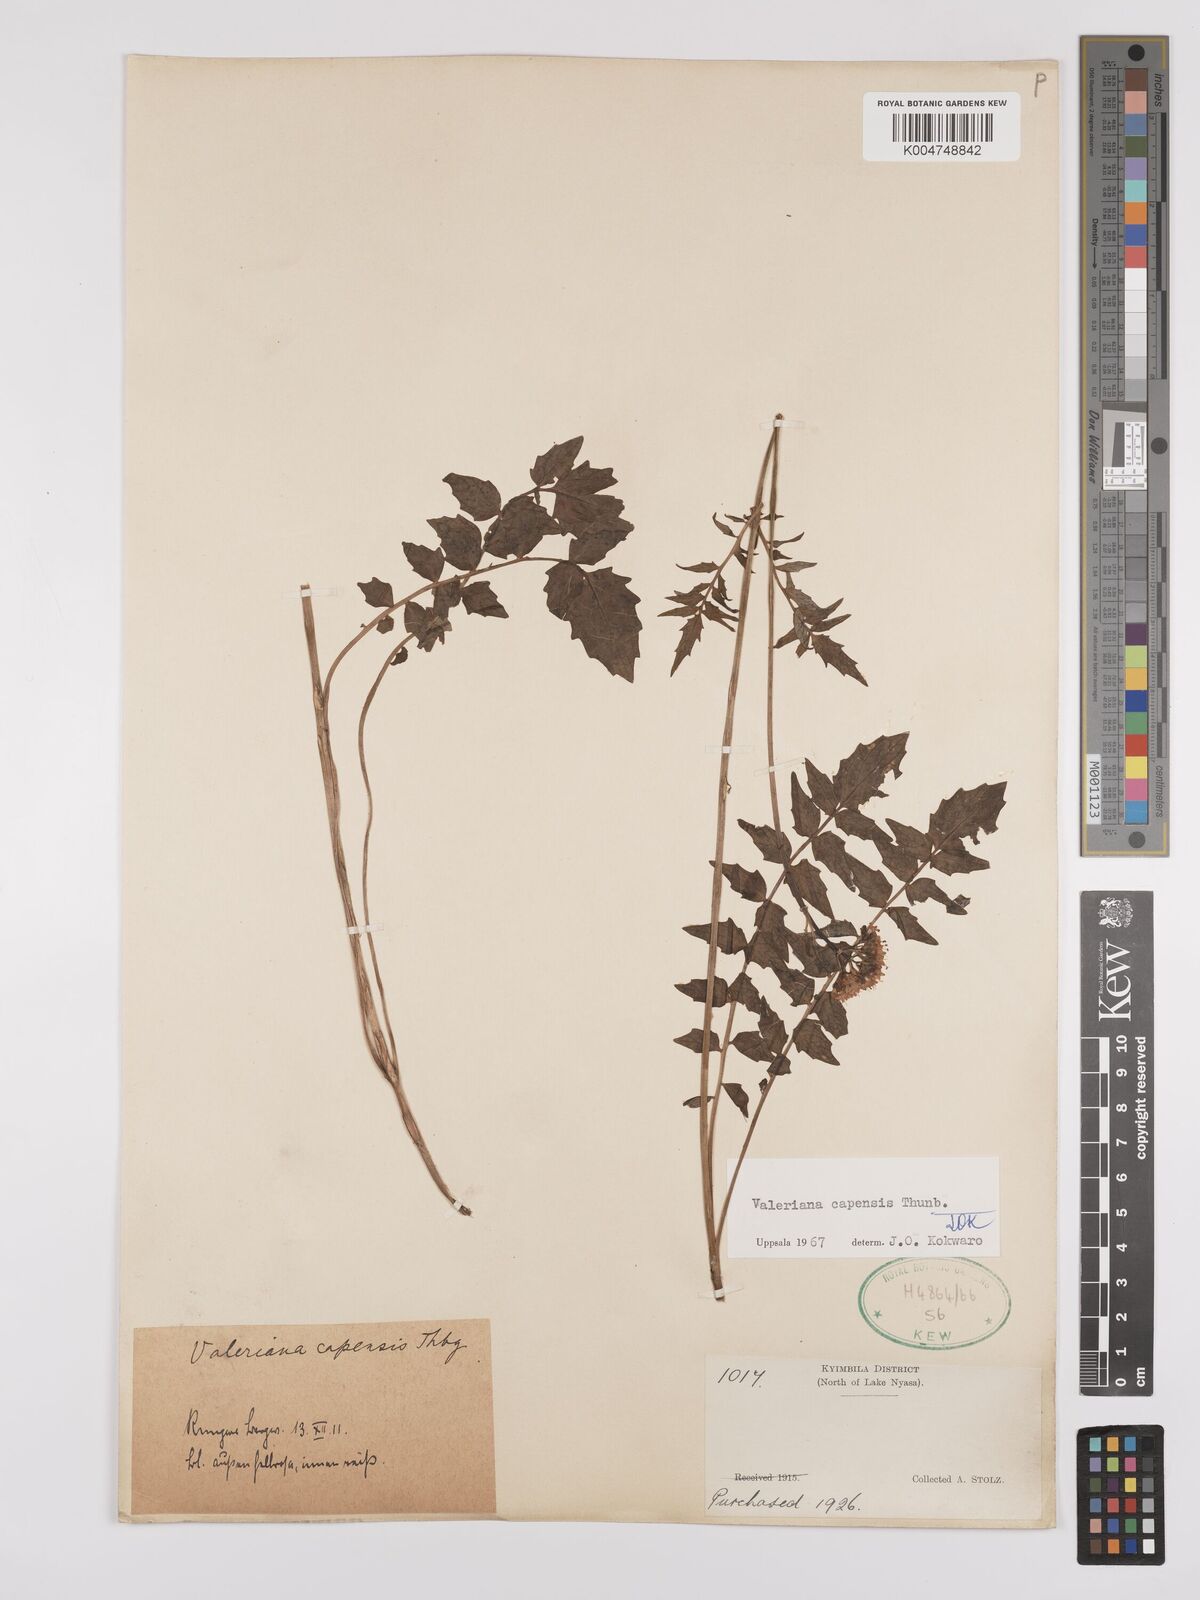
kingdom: Plantae
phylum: Tracheophyta
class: Magnoliopsida
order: Dipsacales
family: Caprifoliaceae
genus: Valeriana
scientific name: Valeriana capensis
